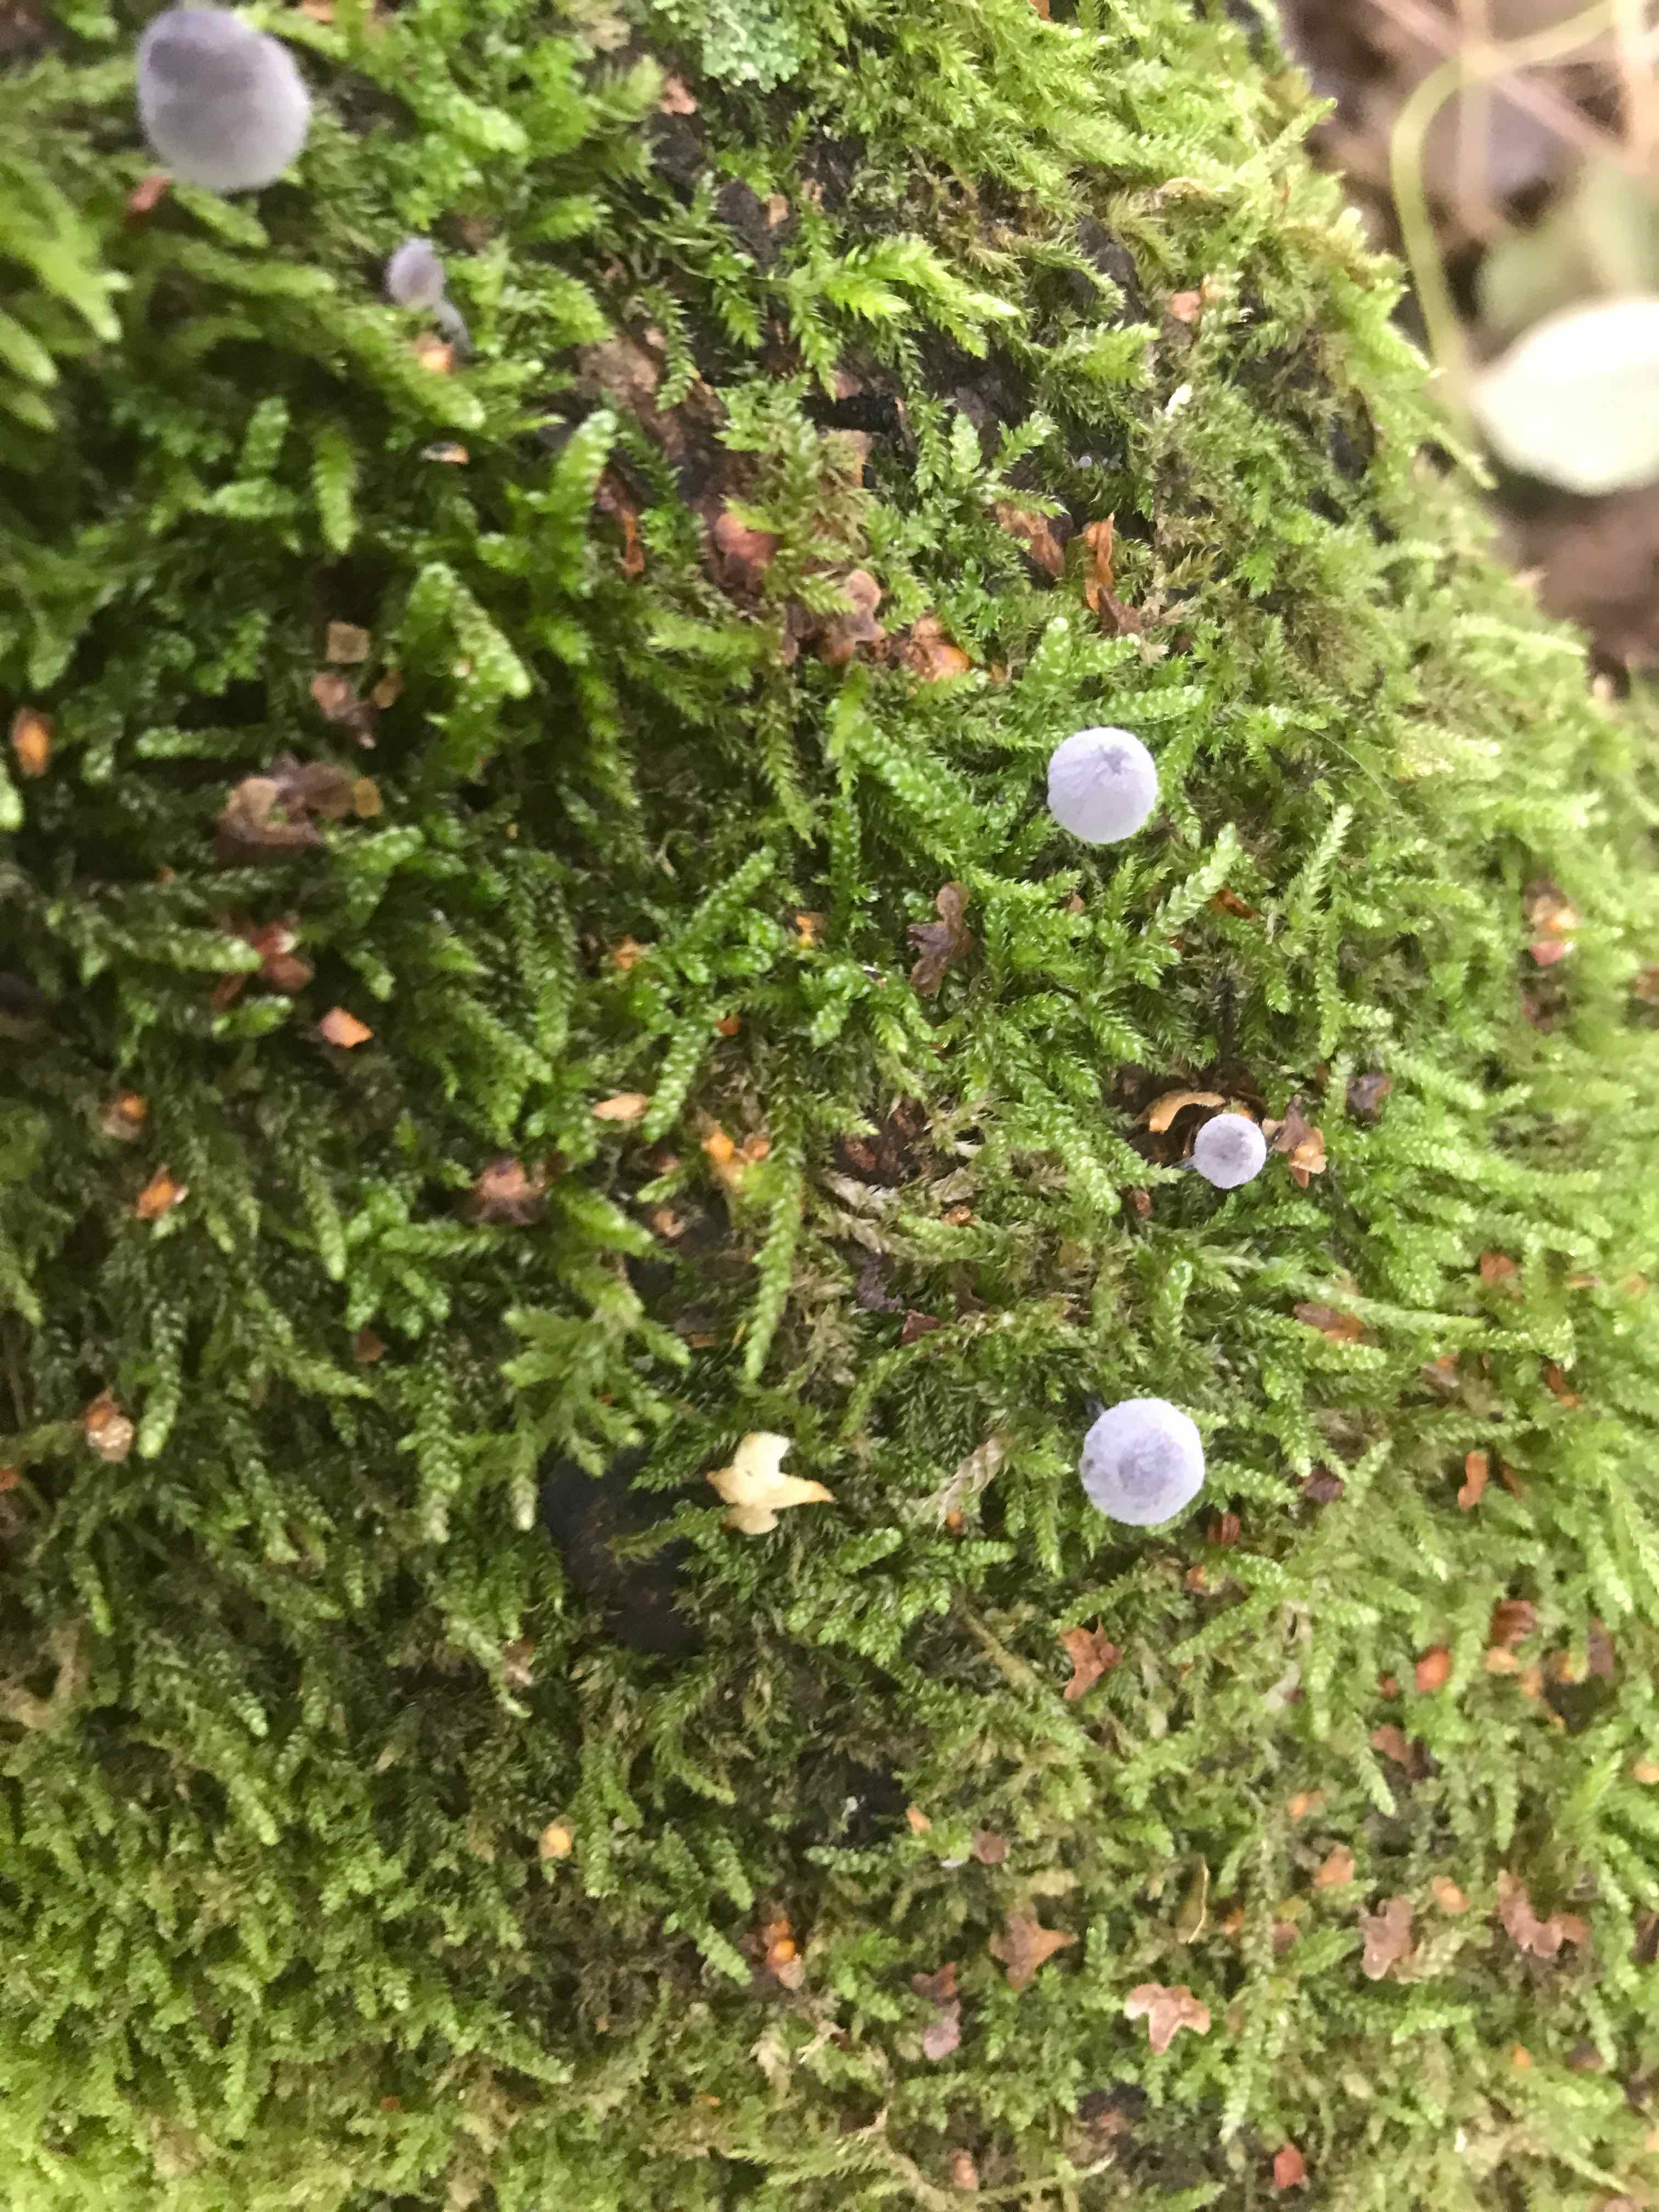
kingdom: Fungi
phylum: Basidiomycota
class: Agaricomycetes
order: Agaricales
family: Mycenaceae
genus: Mycena
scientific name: Mycena pseudocorticola
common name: gråblå bark-huesvamp
